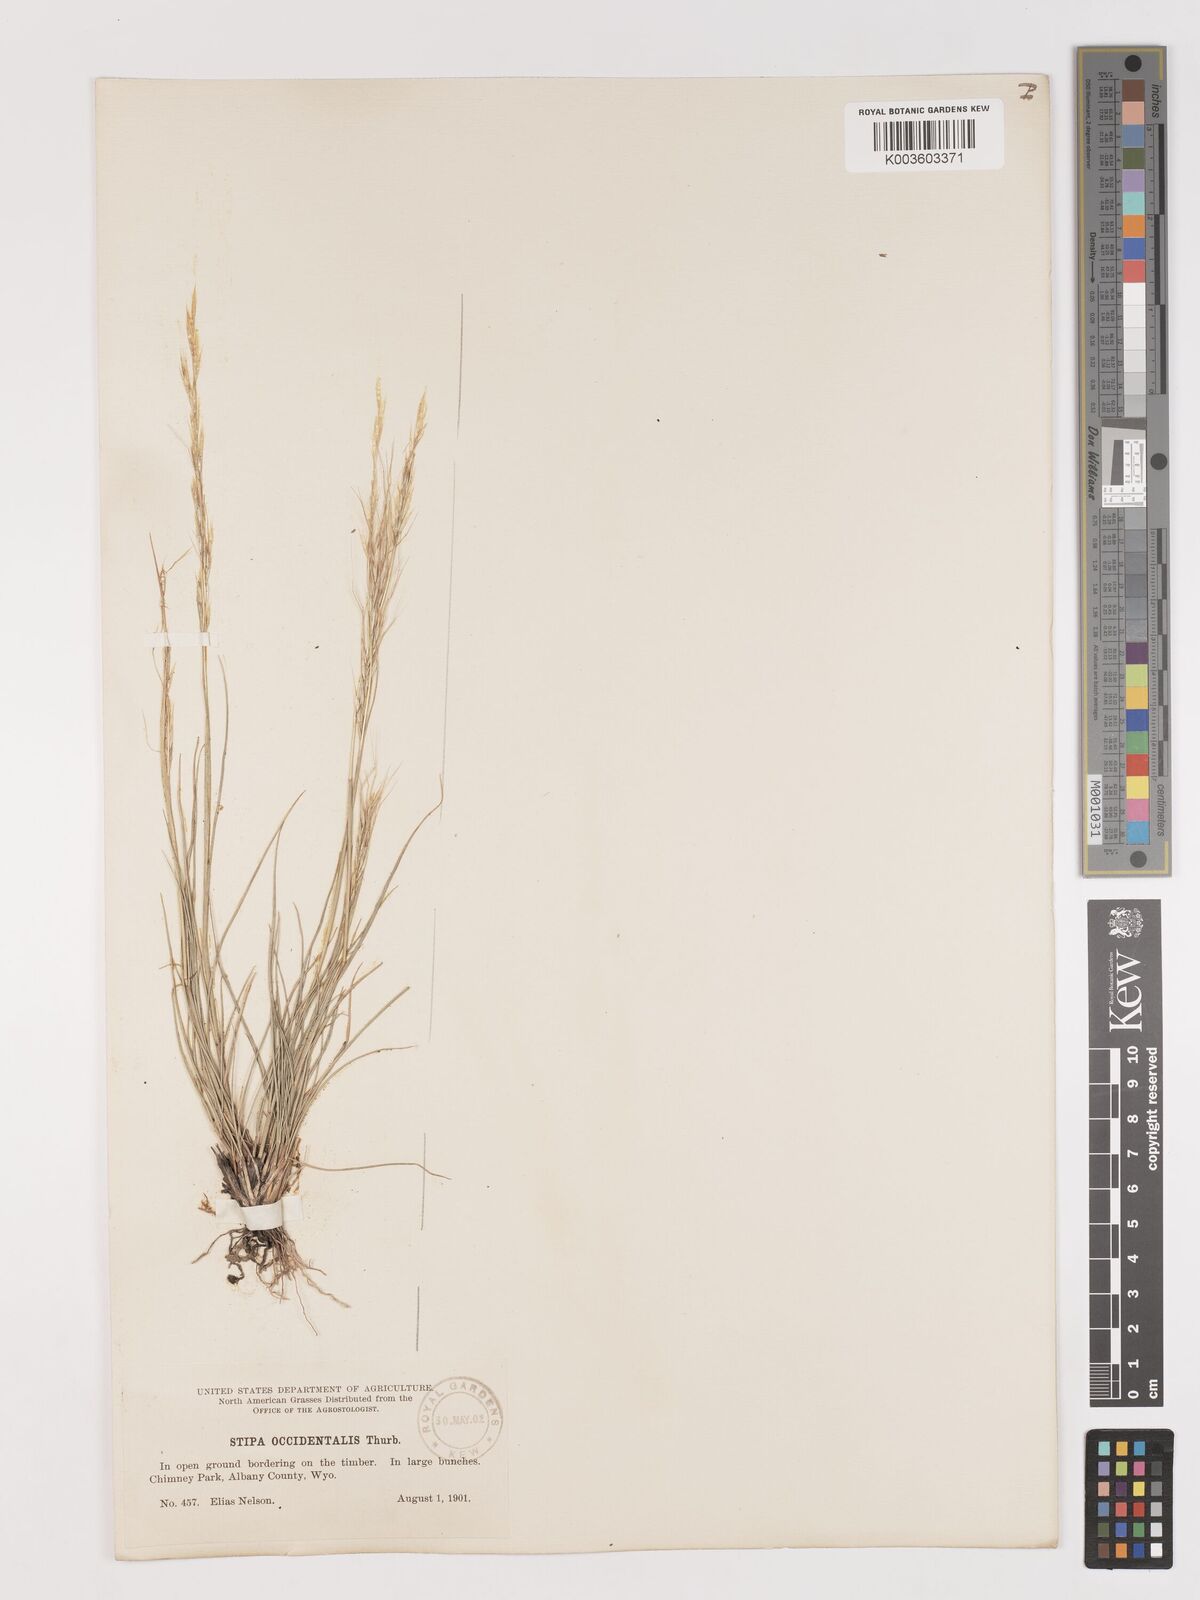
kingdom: Plantae
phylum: Tracheophyta
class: Liliopsida
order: Poales
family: Poaceae
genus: Eriocoma
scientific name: Eriocoma thurberiana
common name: Thurber's needlegrass
